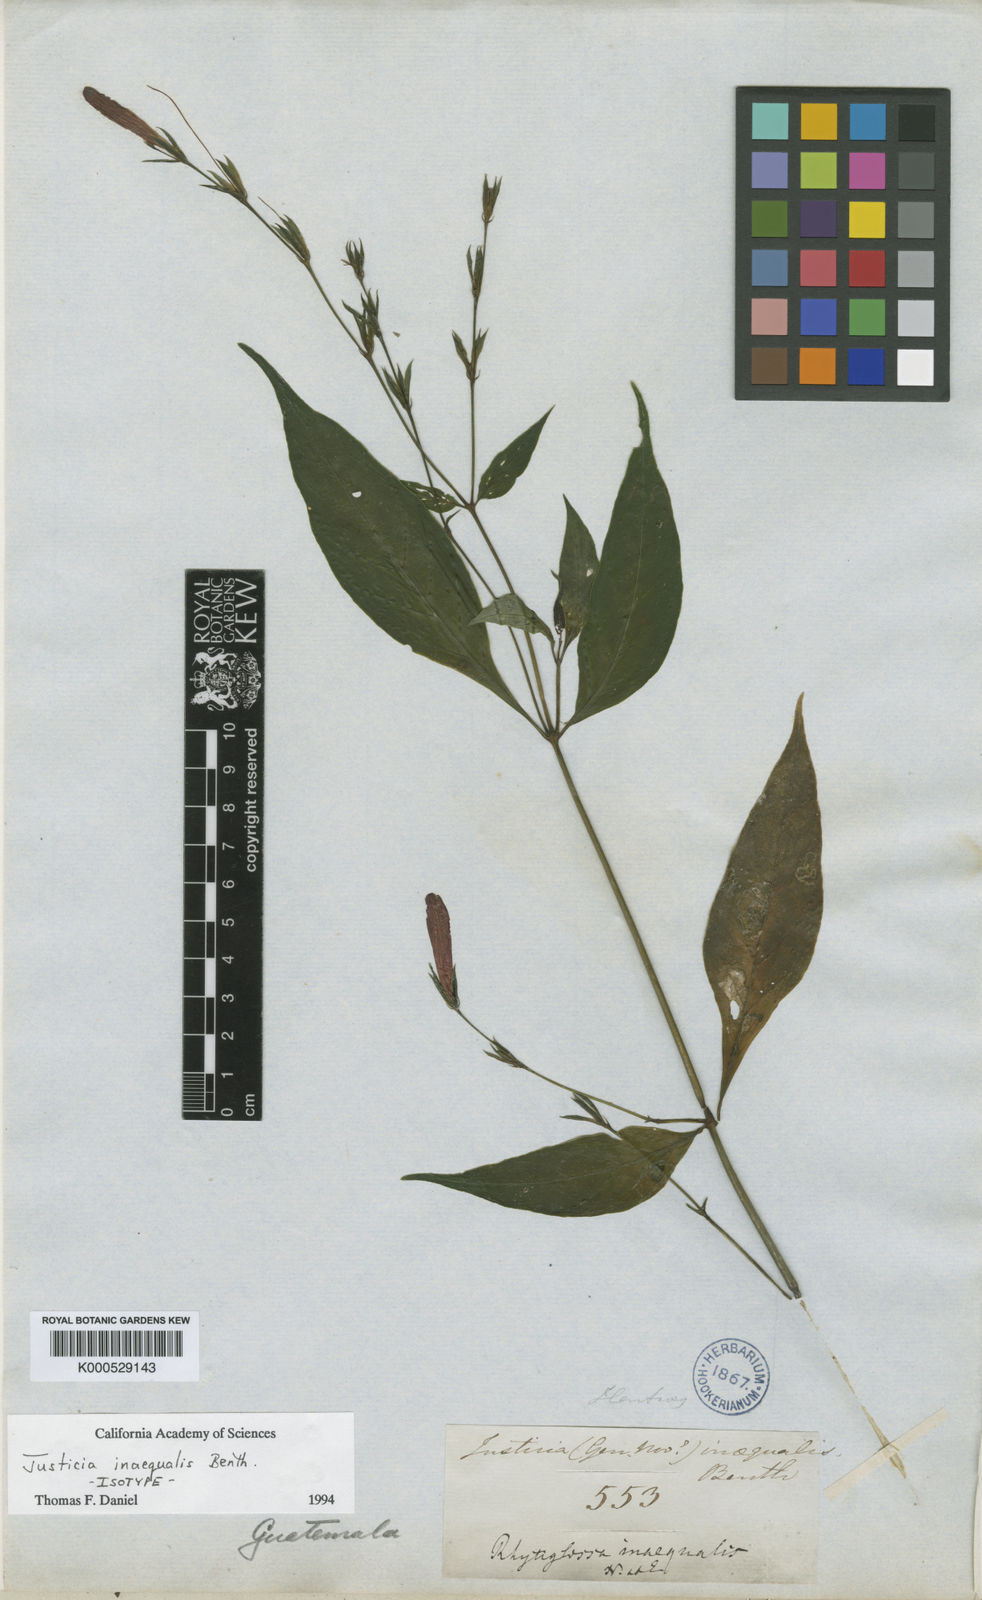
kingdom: Plantae
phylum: Tracheophyta
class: Magnoliopsida
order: Lamiales
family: Acanthaceae
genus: Dianthera
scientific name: Dianthera inaequalis
